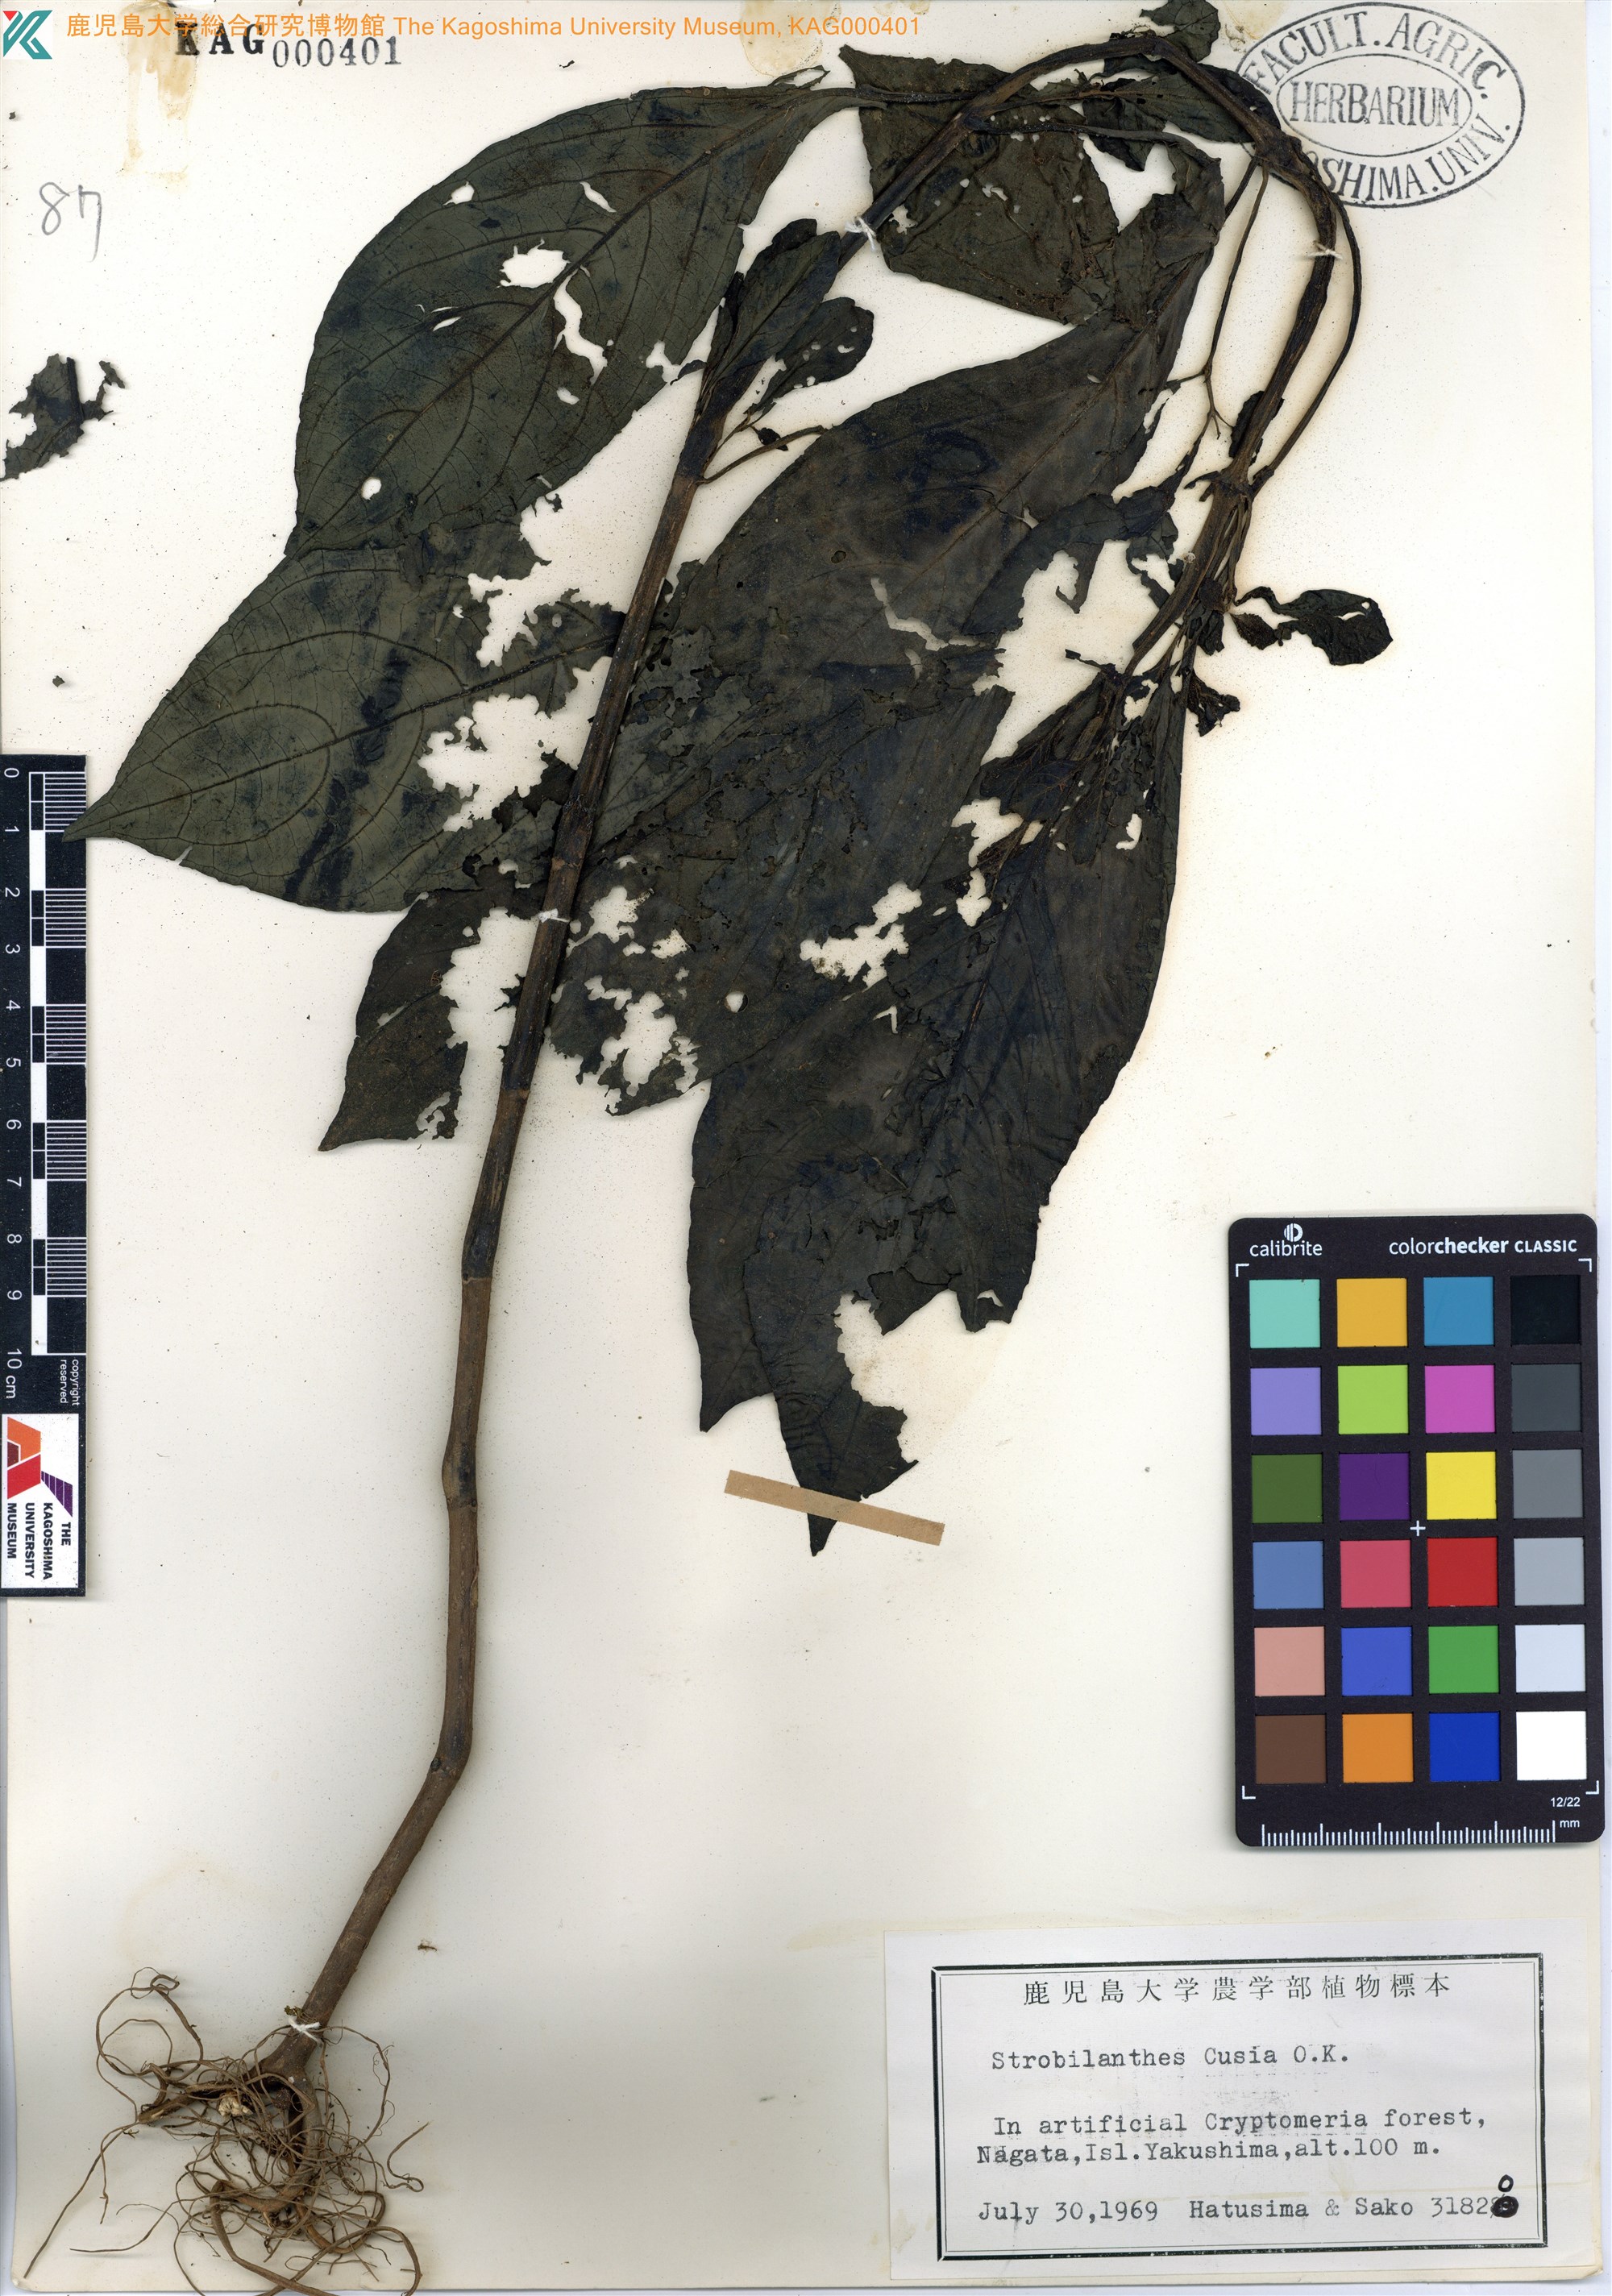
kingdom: Plantae
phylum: Tracheophyta
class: Magnoliopsida
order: Lamiales
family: Acanthaceae
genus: Strobilanthes
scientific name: Strobilanthes cusia
